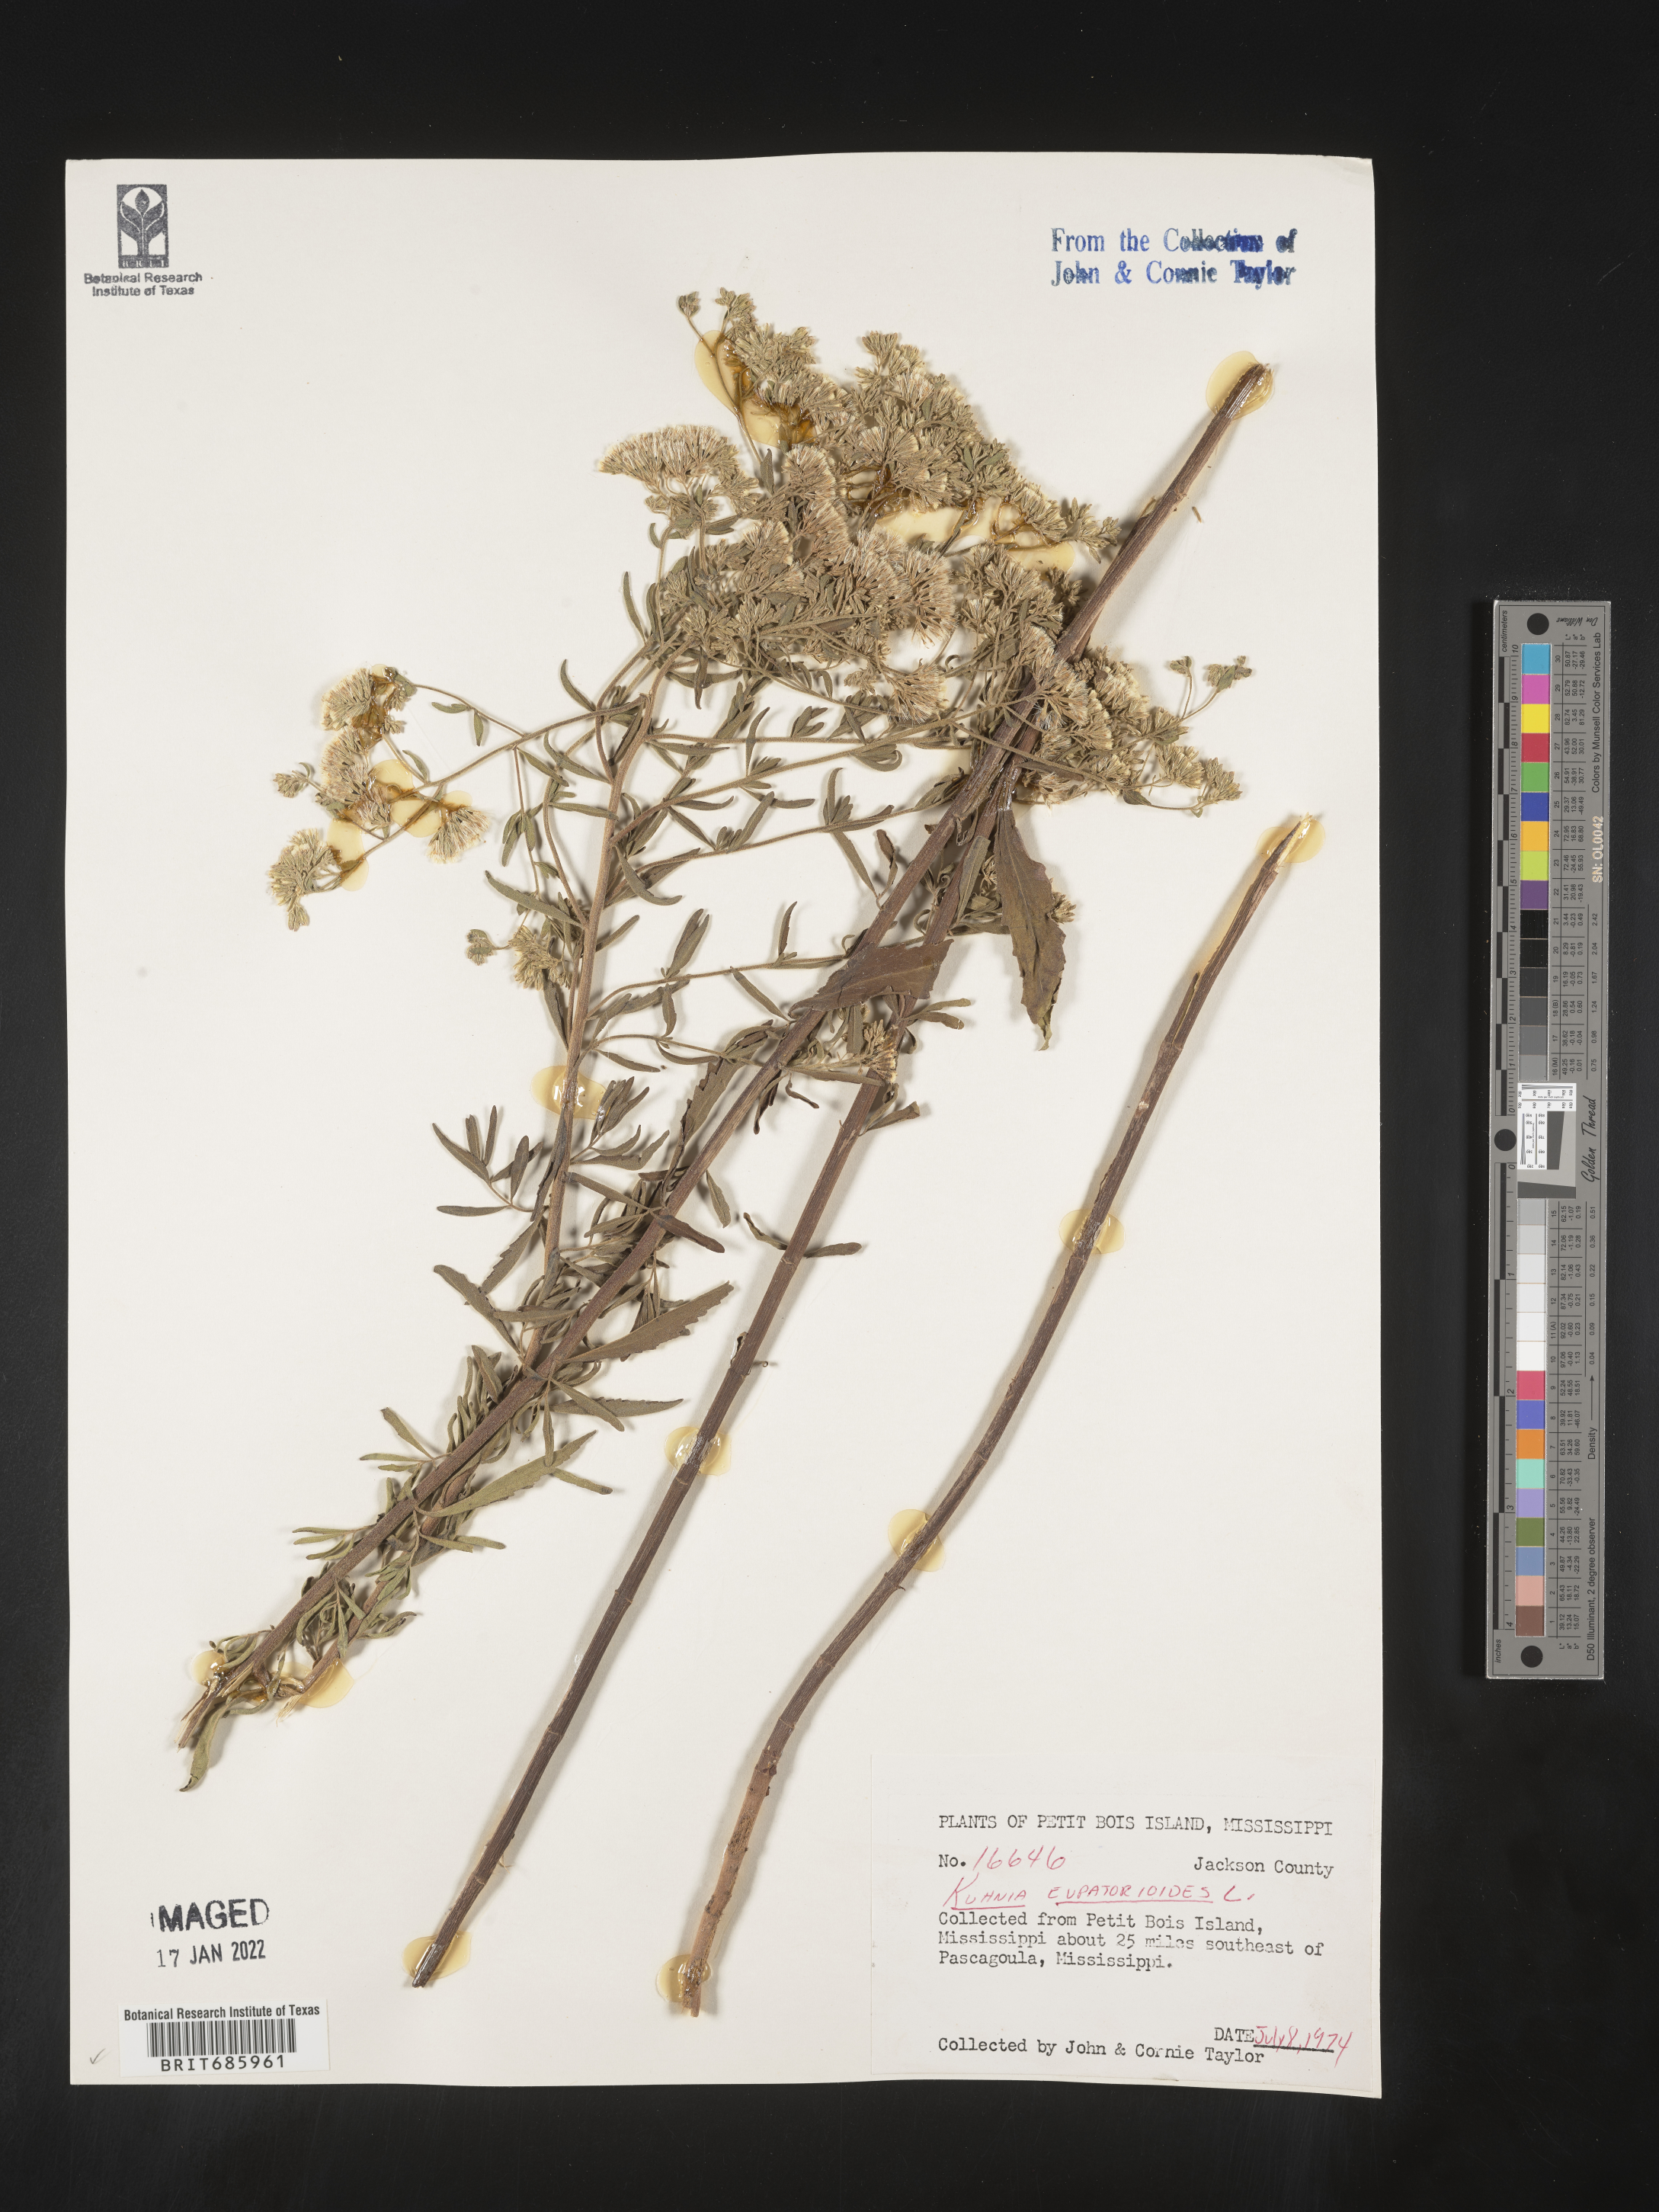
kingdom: Plantae
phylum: Tracheophyta
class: Magnoliopsida
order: Asterales
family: Asteraceae
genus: Brickellia
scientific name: Brickellia eupatorioides
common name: False boneset
